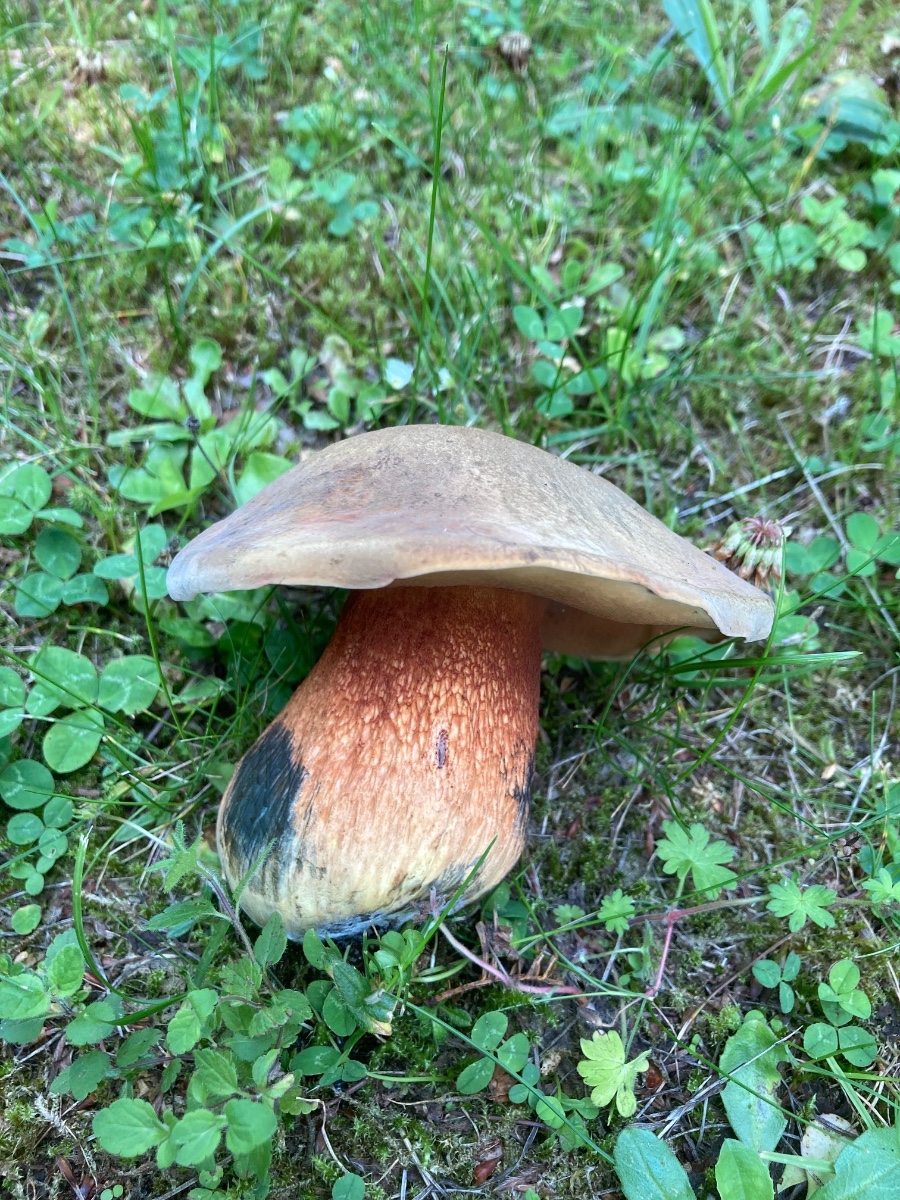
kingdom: Fungi
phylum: Basidiomycota
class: Agaricomycetes
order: Boletales
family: Boletaceae
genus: Suillellus
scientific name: Suillellus luridus
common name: netstokket indigorørhat
